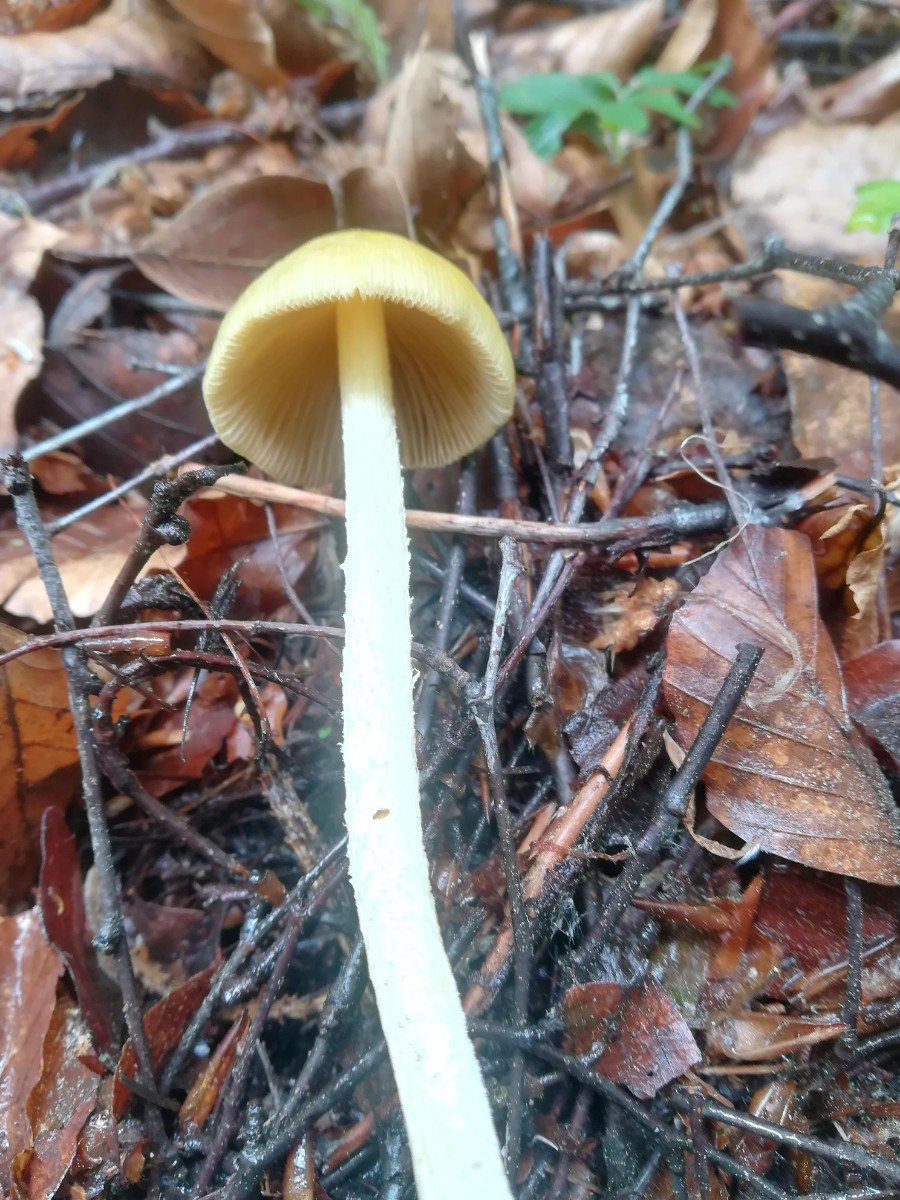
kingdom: Fungi
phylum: Basidiomycota
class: Agaricomycetes
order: Agaricales
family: Bolbitiaceae
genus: Bolbitius
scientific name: Bolbitius titubans
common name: almindelig gulhat
